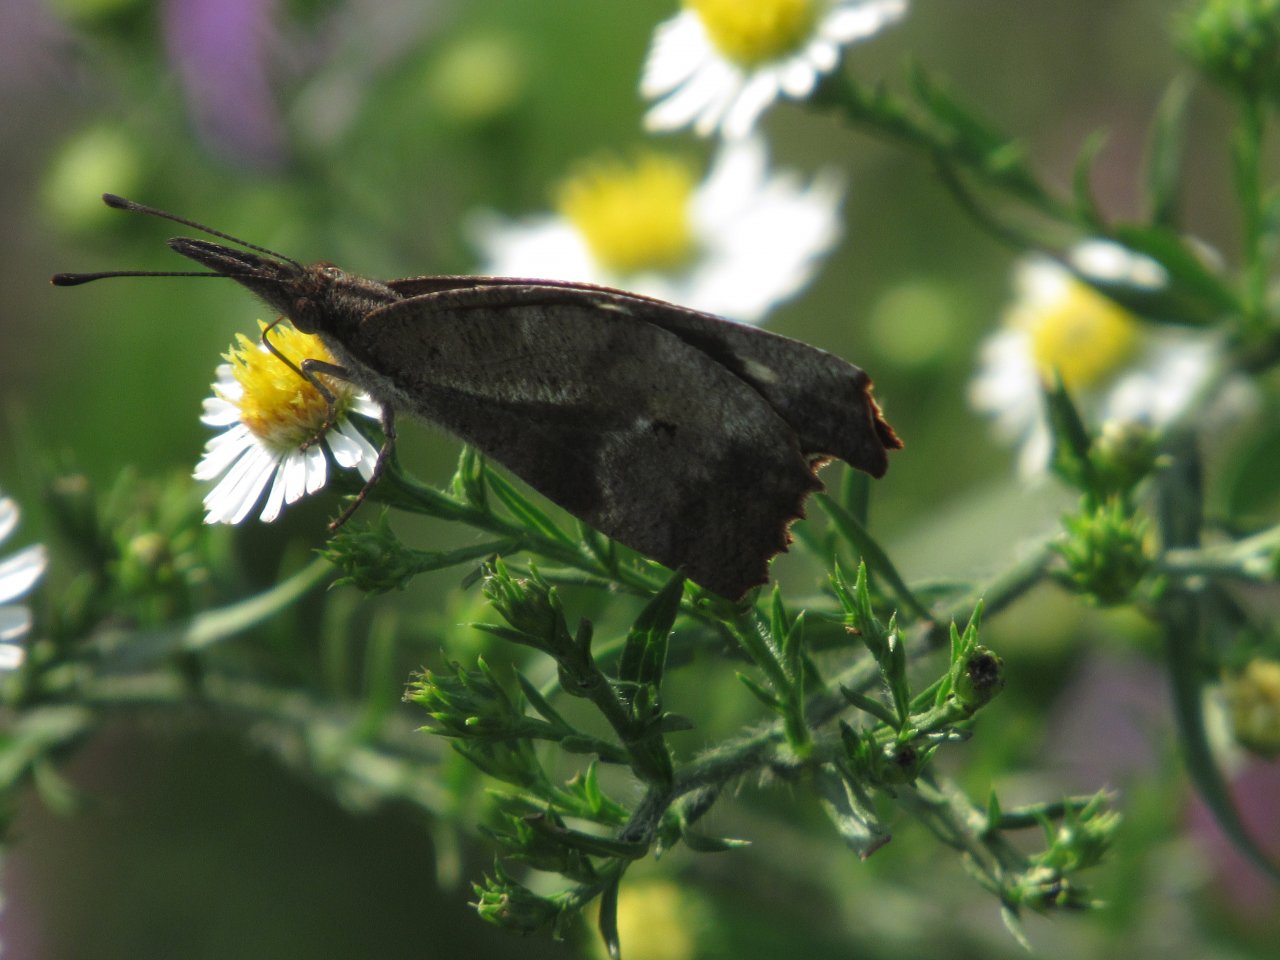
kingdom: Animalia
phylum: Arthropoda
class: Insecta
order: Lepidoptera
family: Nymphalidae
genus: Libytheana
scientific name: Libytheana carinenta
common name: American Snout
